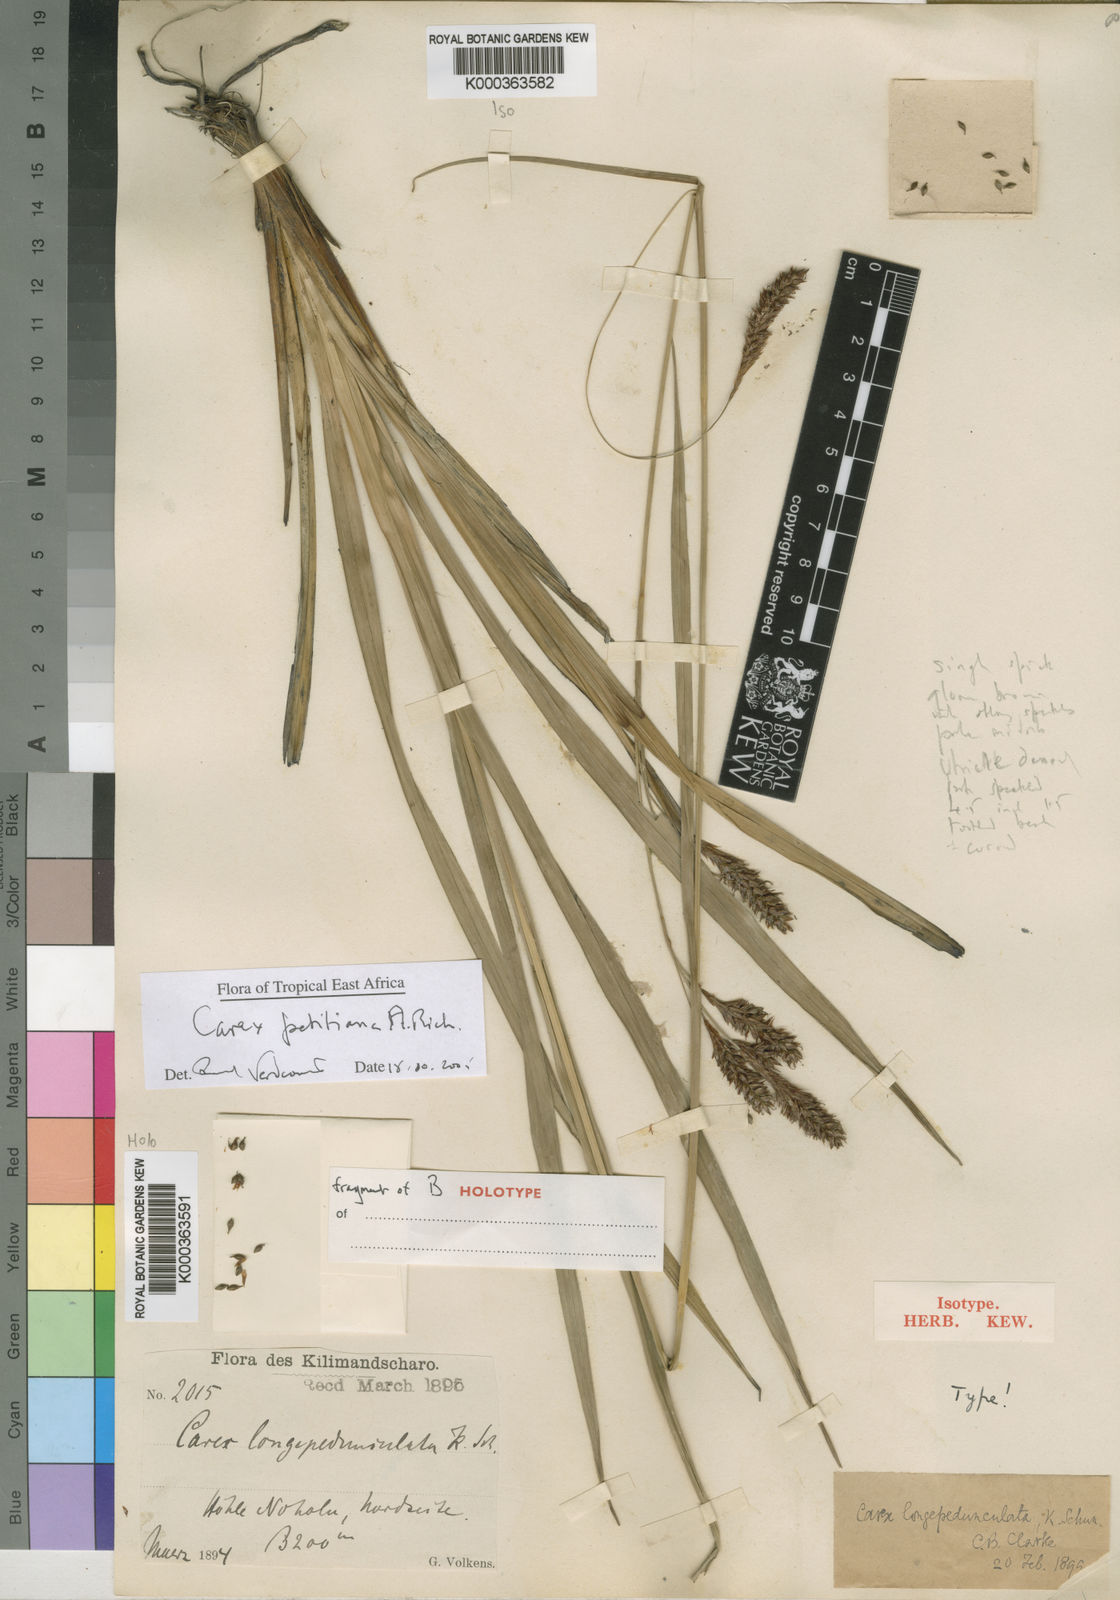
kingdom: Plantae
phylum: Tracheophyta
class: Liliopsida
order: Poales
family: Cyperaceae
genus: Carex
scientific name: Carex petitiana
